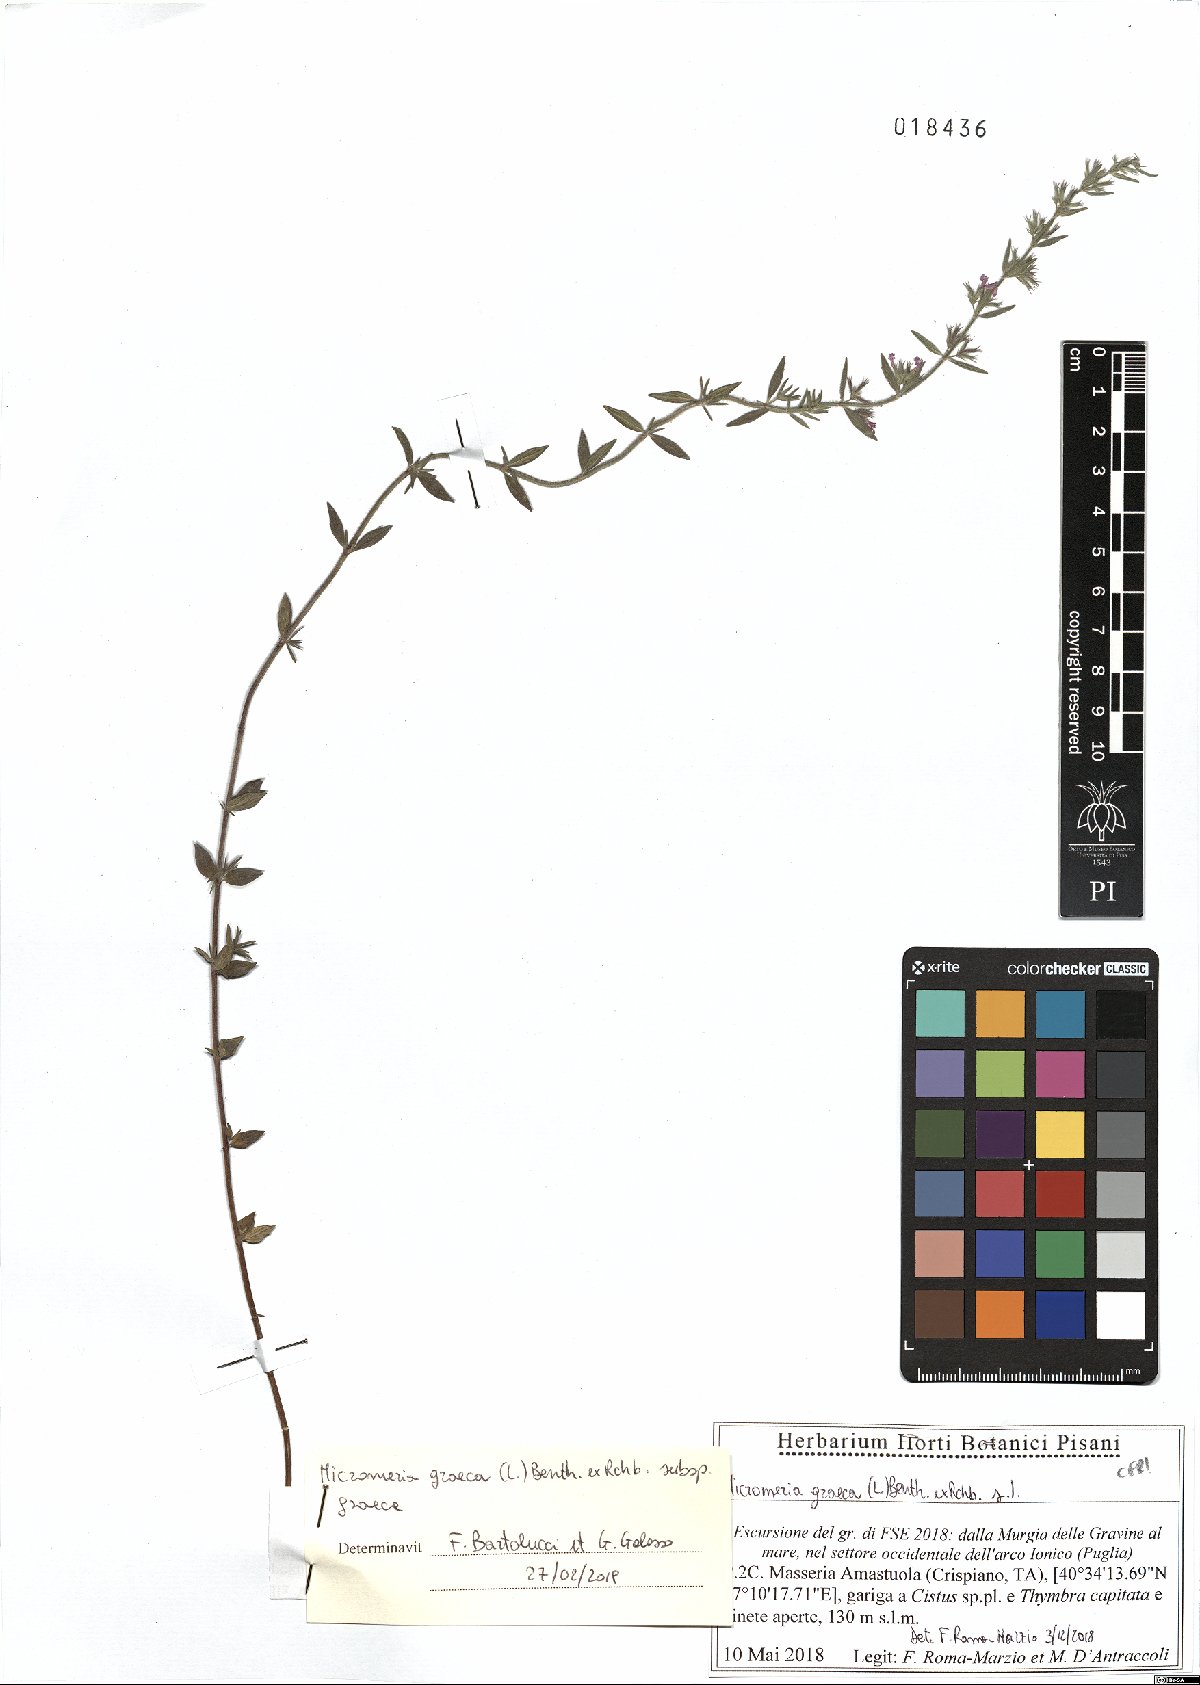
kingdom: Plantae
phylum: Tracheophyta
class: Magnoliopsida
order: Lamiales
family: Lamiaceae
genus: Micromeria
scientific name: Micromeria graeca
